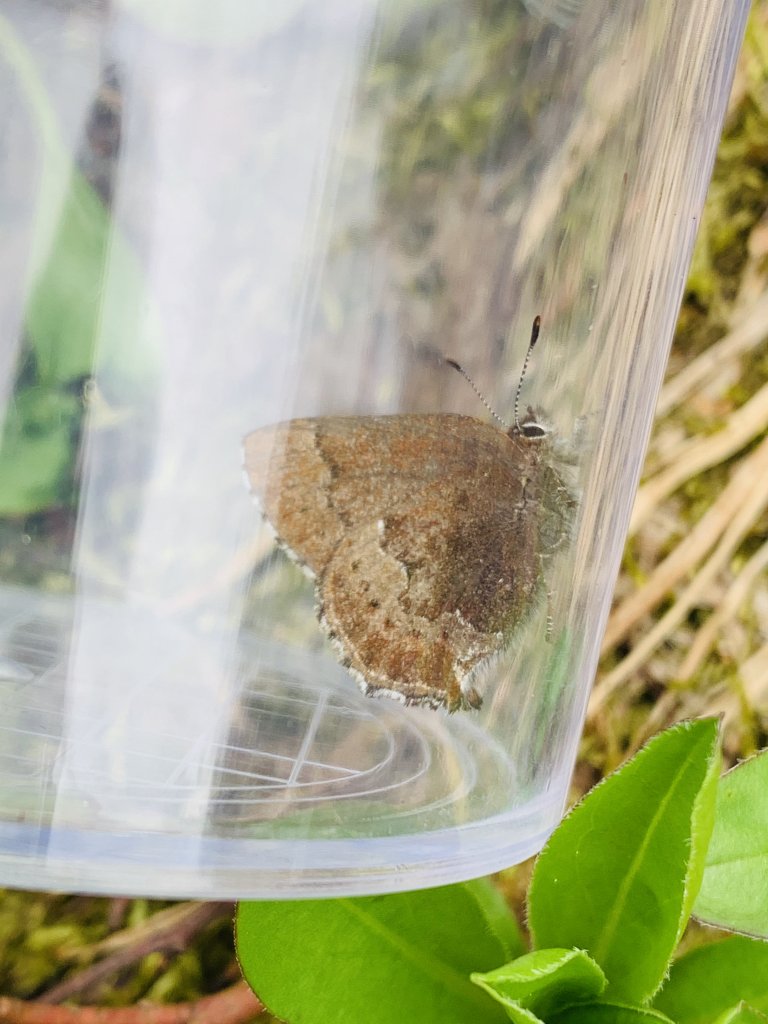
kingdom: Animalia
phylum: Arthropoda
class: Insecta
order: Lepidoptera
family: Lycaenidae
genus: Callophrys
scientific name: Callophrys mossii
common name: Moss' Elfin
